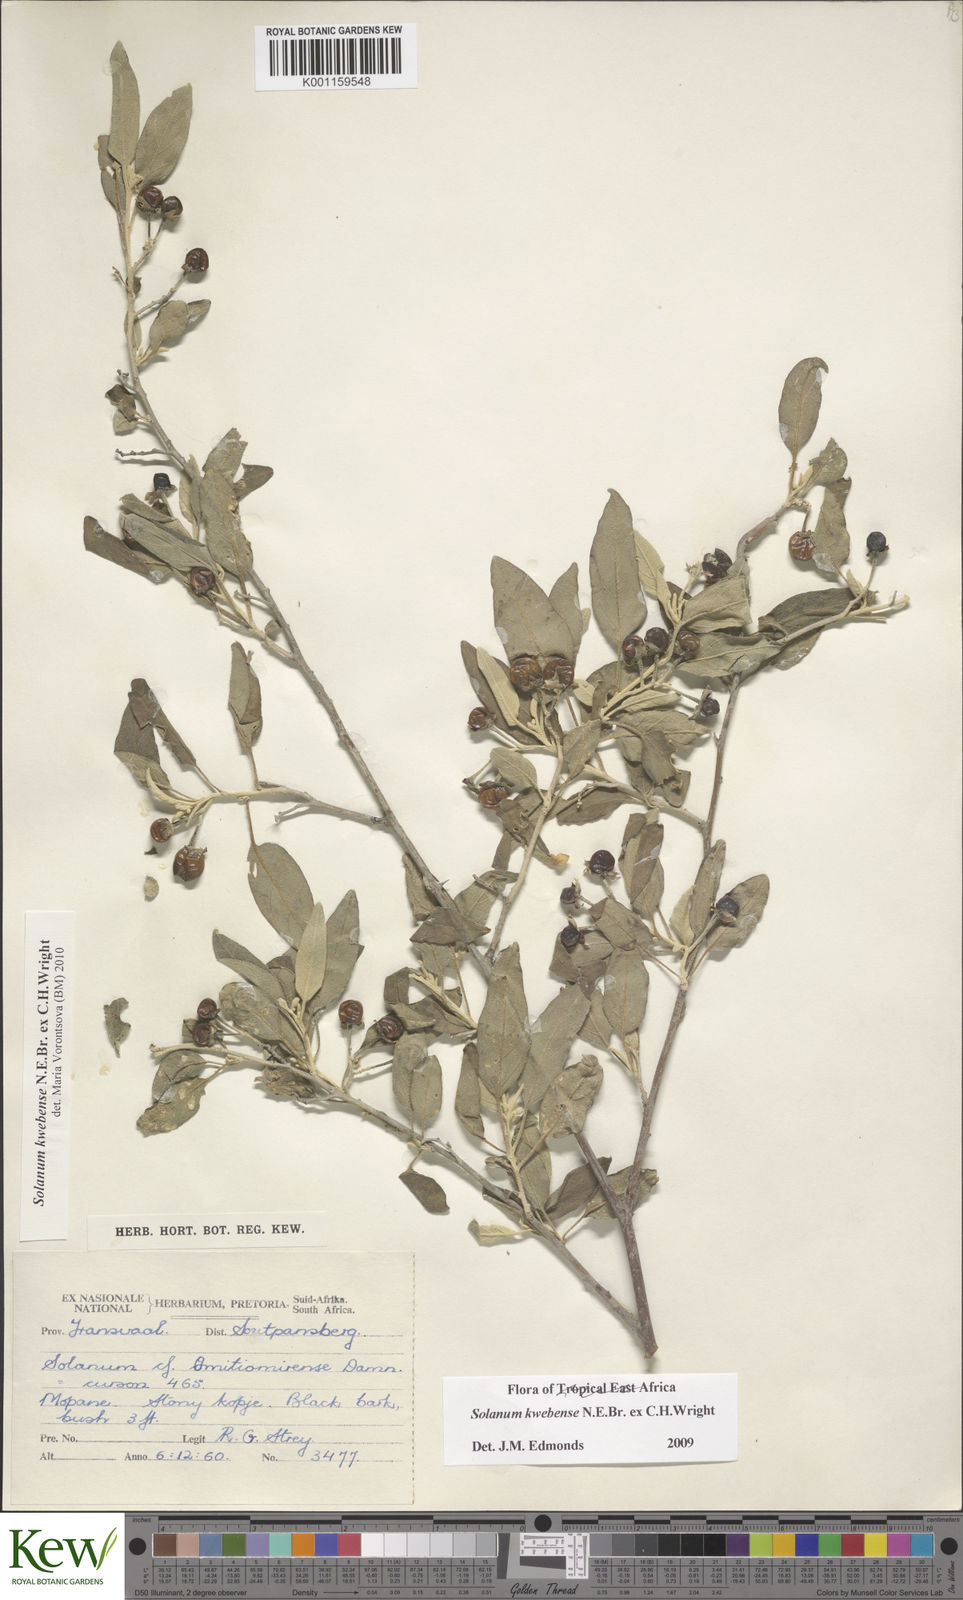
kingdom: Plantae
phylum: Tracheophyta
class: Magnoliopsida
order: Solanales
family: Solanaceae
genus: Solanum
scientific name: Solanum tettense
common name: Mozambique bitter apple
